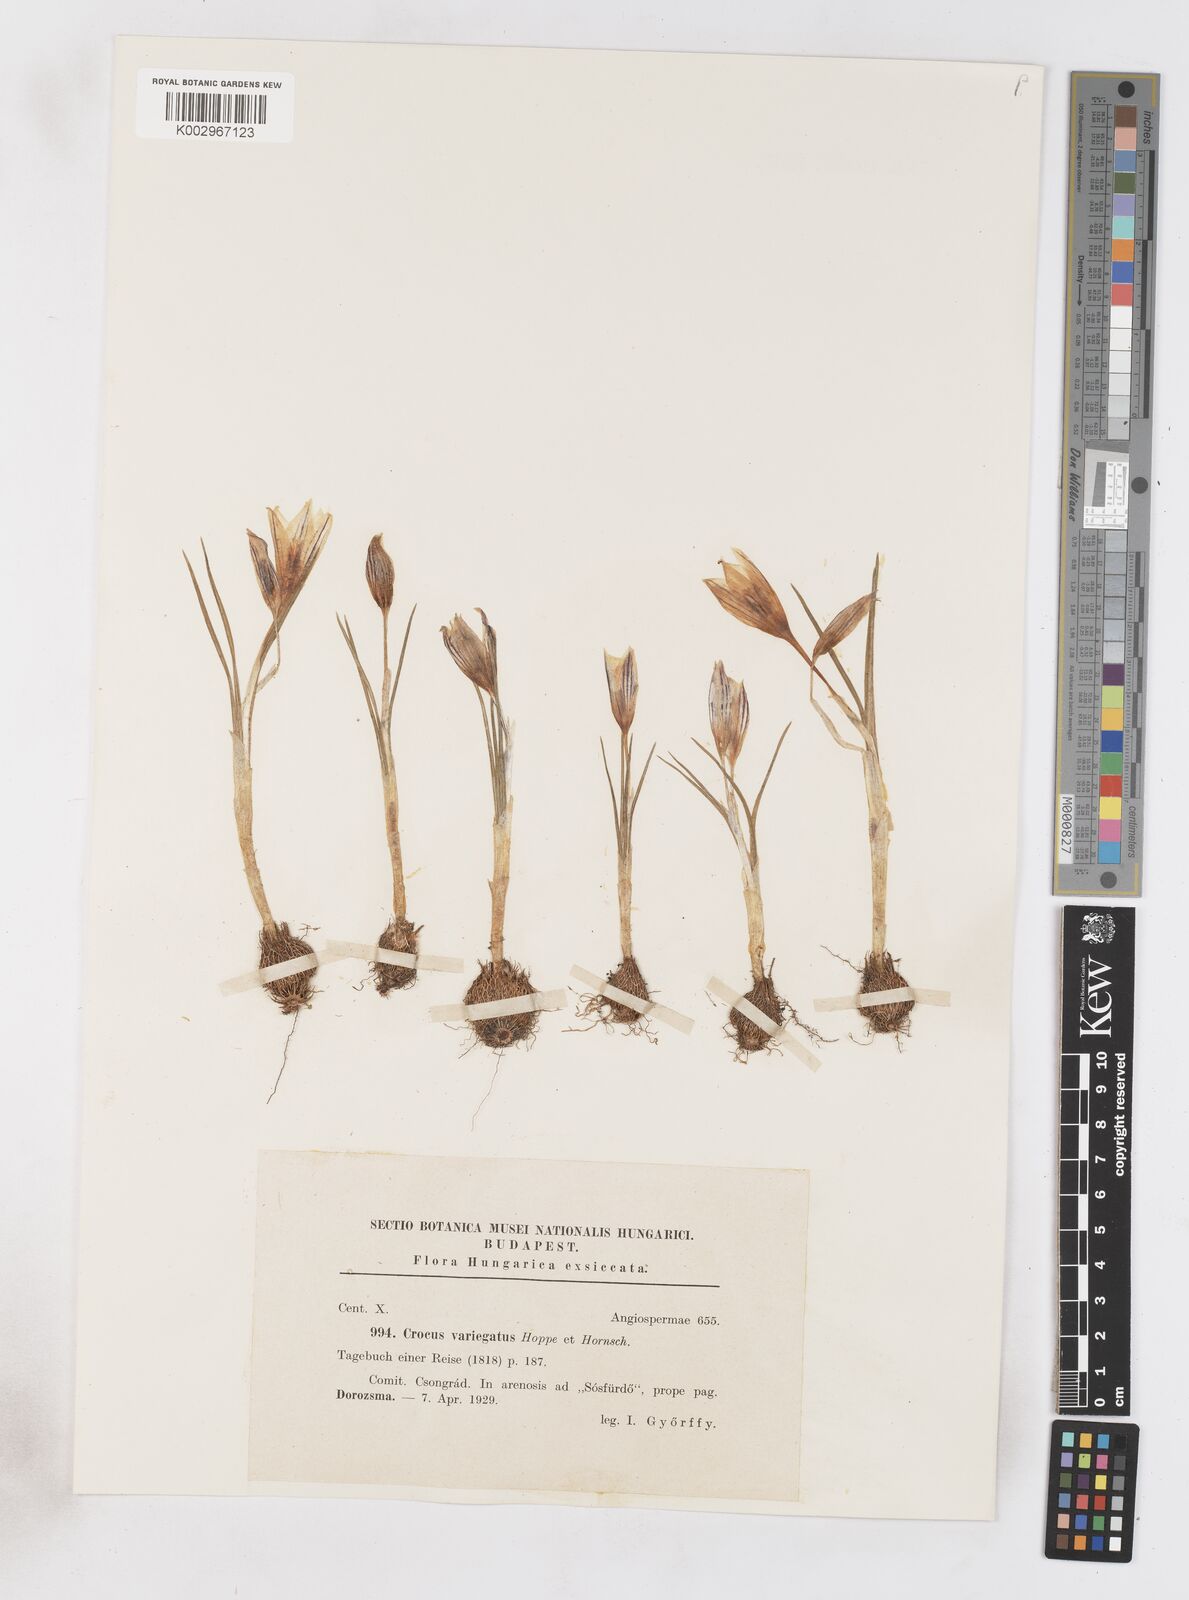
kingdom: Plantae
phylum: Tracheophyta
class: Liliopsida
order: Asparagales
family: Iridaceae
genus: Crocus
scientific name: Crocus reticulatus
